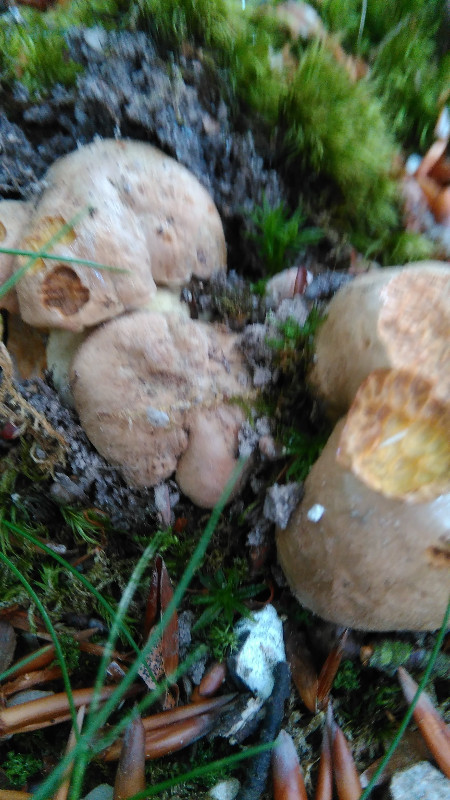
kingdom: Fungi
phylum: Basidiomycota
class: Agaricomycetes
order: Boletales
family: Boletaceae
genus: Butyriboletus
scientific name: Butyriboletus appendiculatus
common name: tenstokket rørhat
